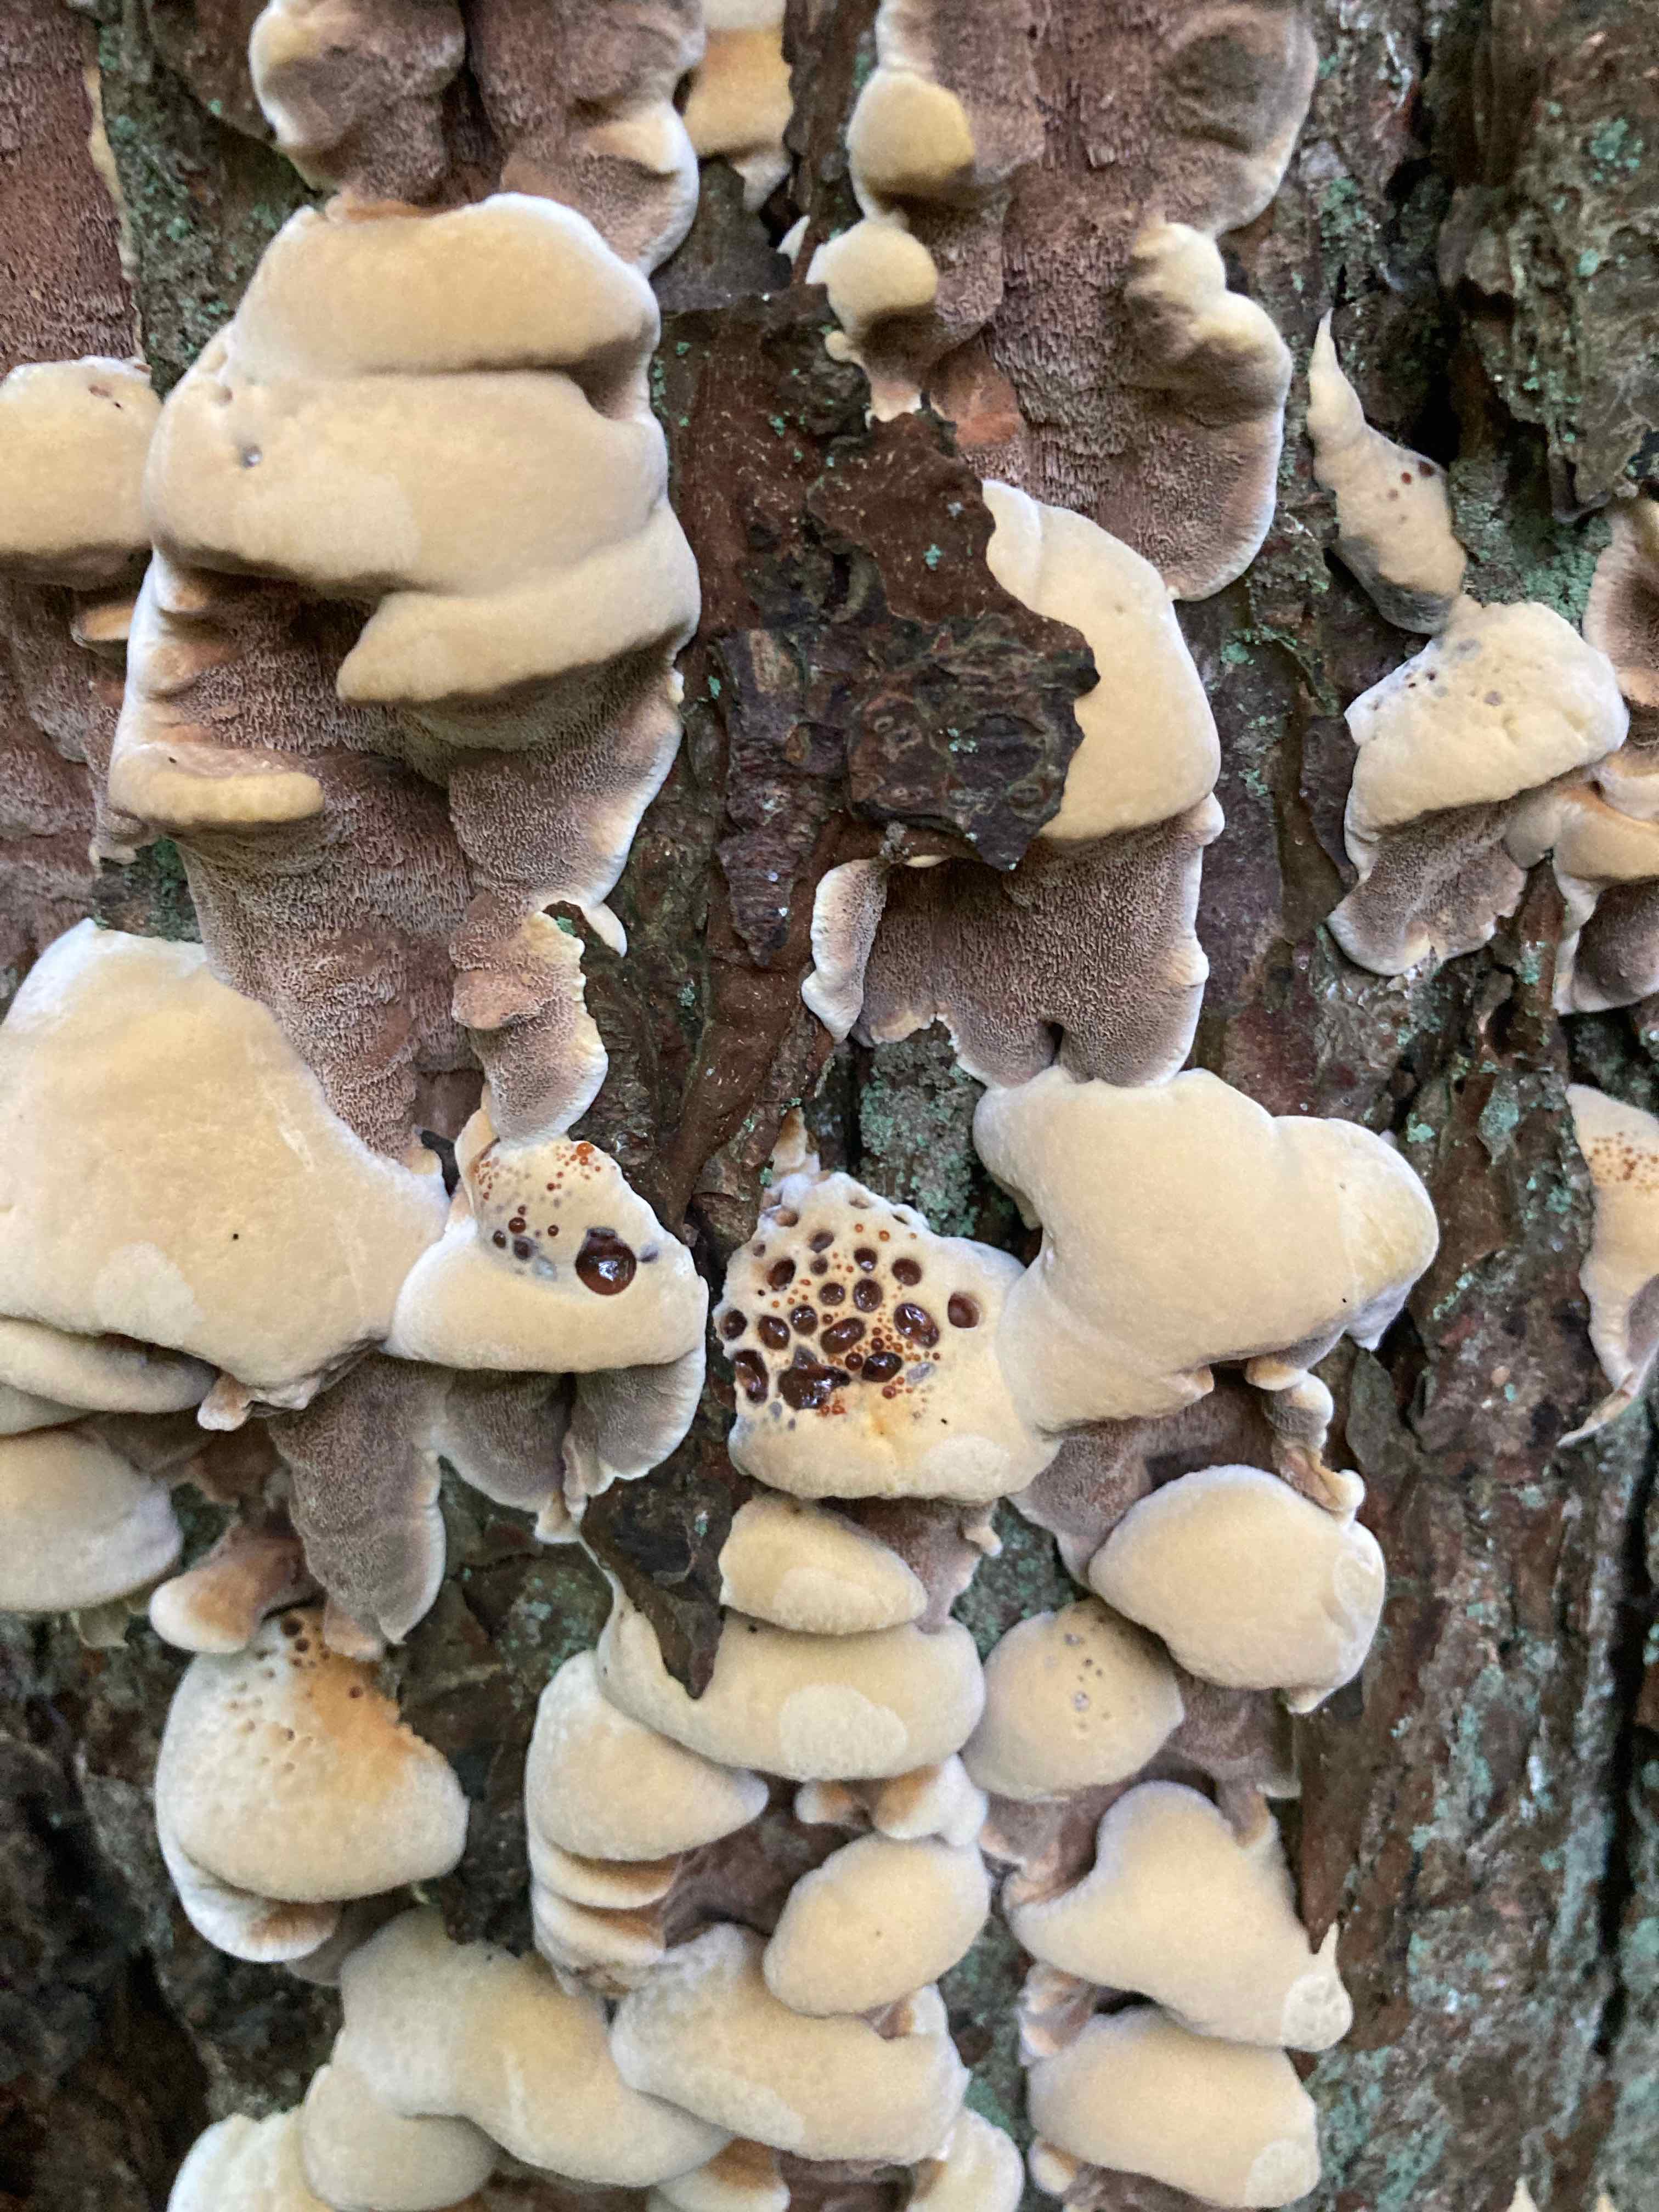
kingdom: Fungi
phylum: Basidiomycota
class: Agaricomycetes
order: Hymenochaetales
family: Hymenochaetaceae
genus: Xanthoporia
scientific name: Xanthoporia radiata
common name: elle-spejlporesvamp
